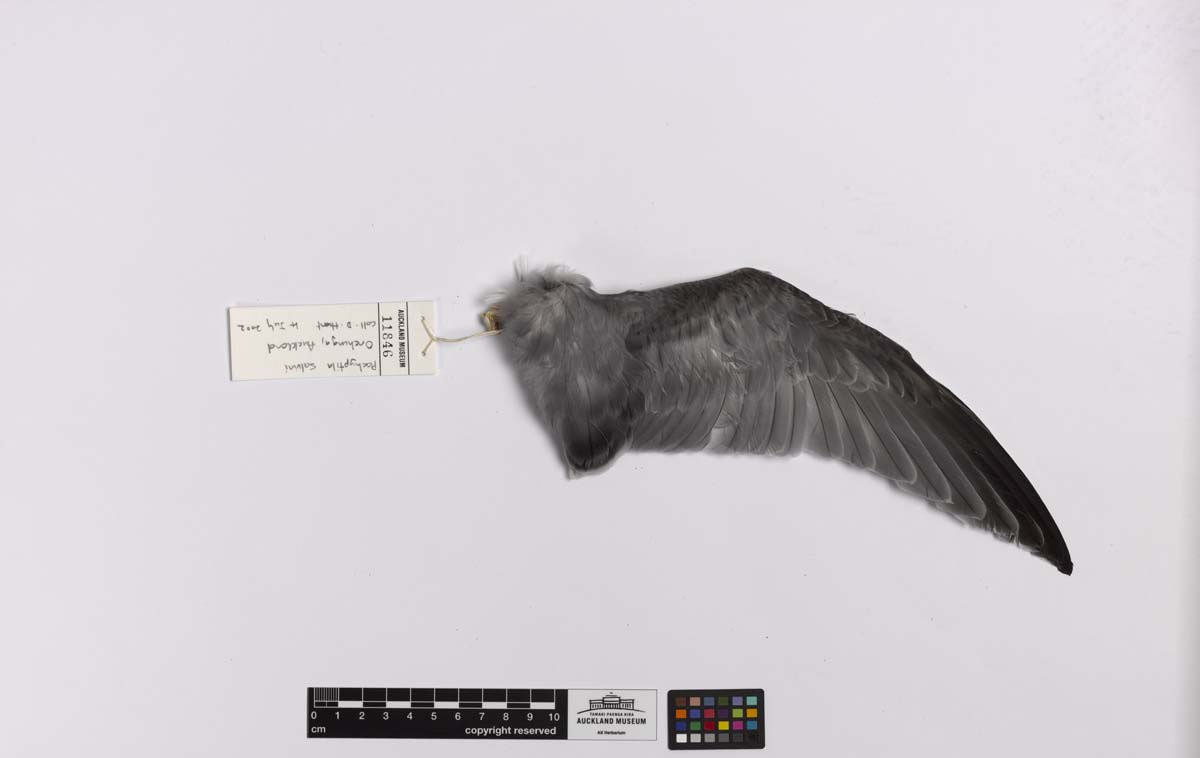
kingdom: Animalia
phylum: Chordata
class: Aves
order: Procellariiformes
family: Procellariidae
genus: Pachyptila
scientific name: Pachyptila salvini
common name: Salvin's prion
